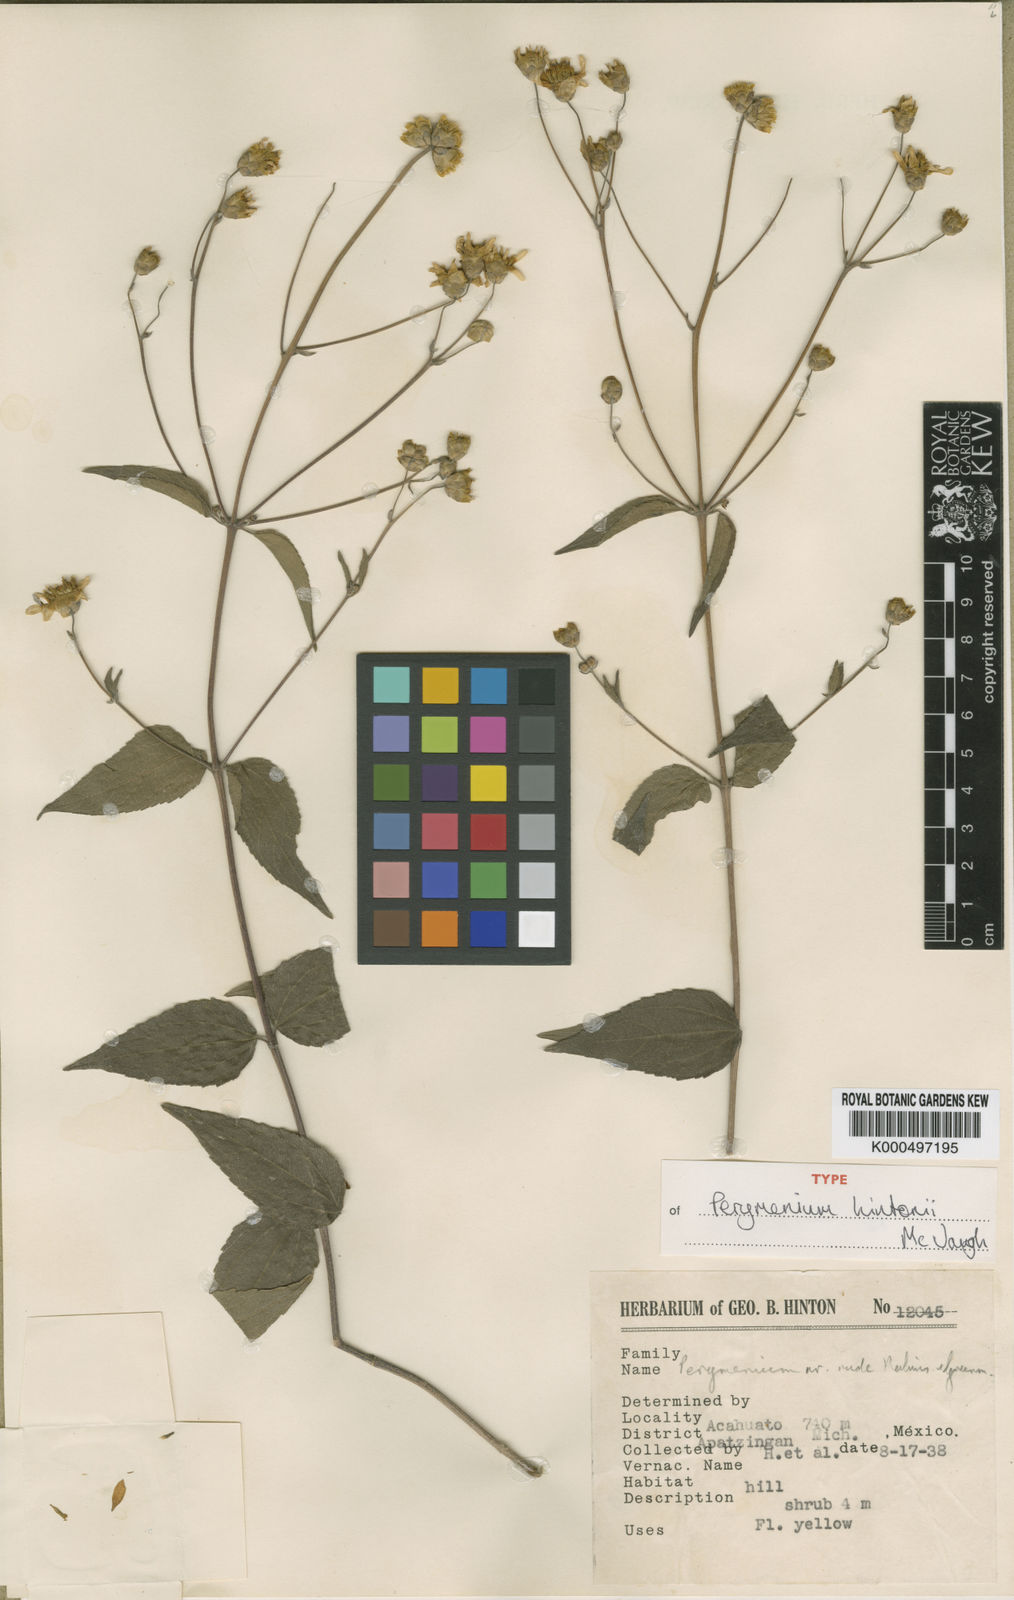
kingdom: Plantae
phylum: Tracheophyta
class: Magnoliopsida
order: Asterales
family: Asteraceae
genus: Perymenium
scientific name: Perymenium hintonii
